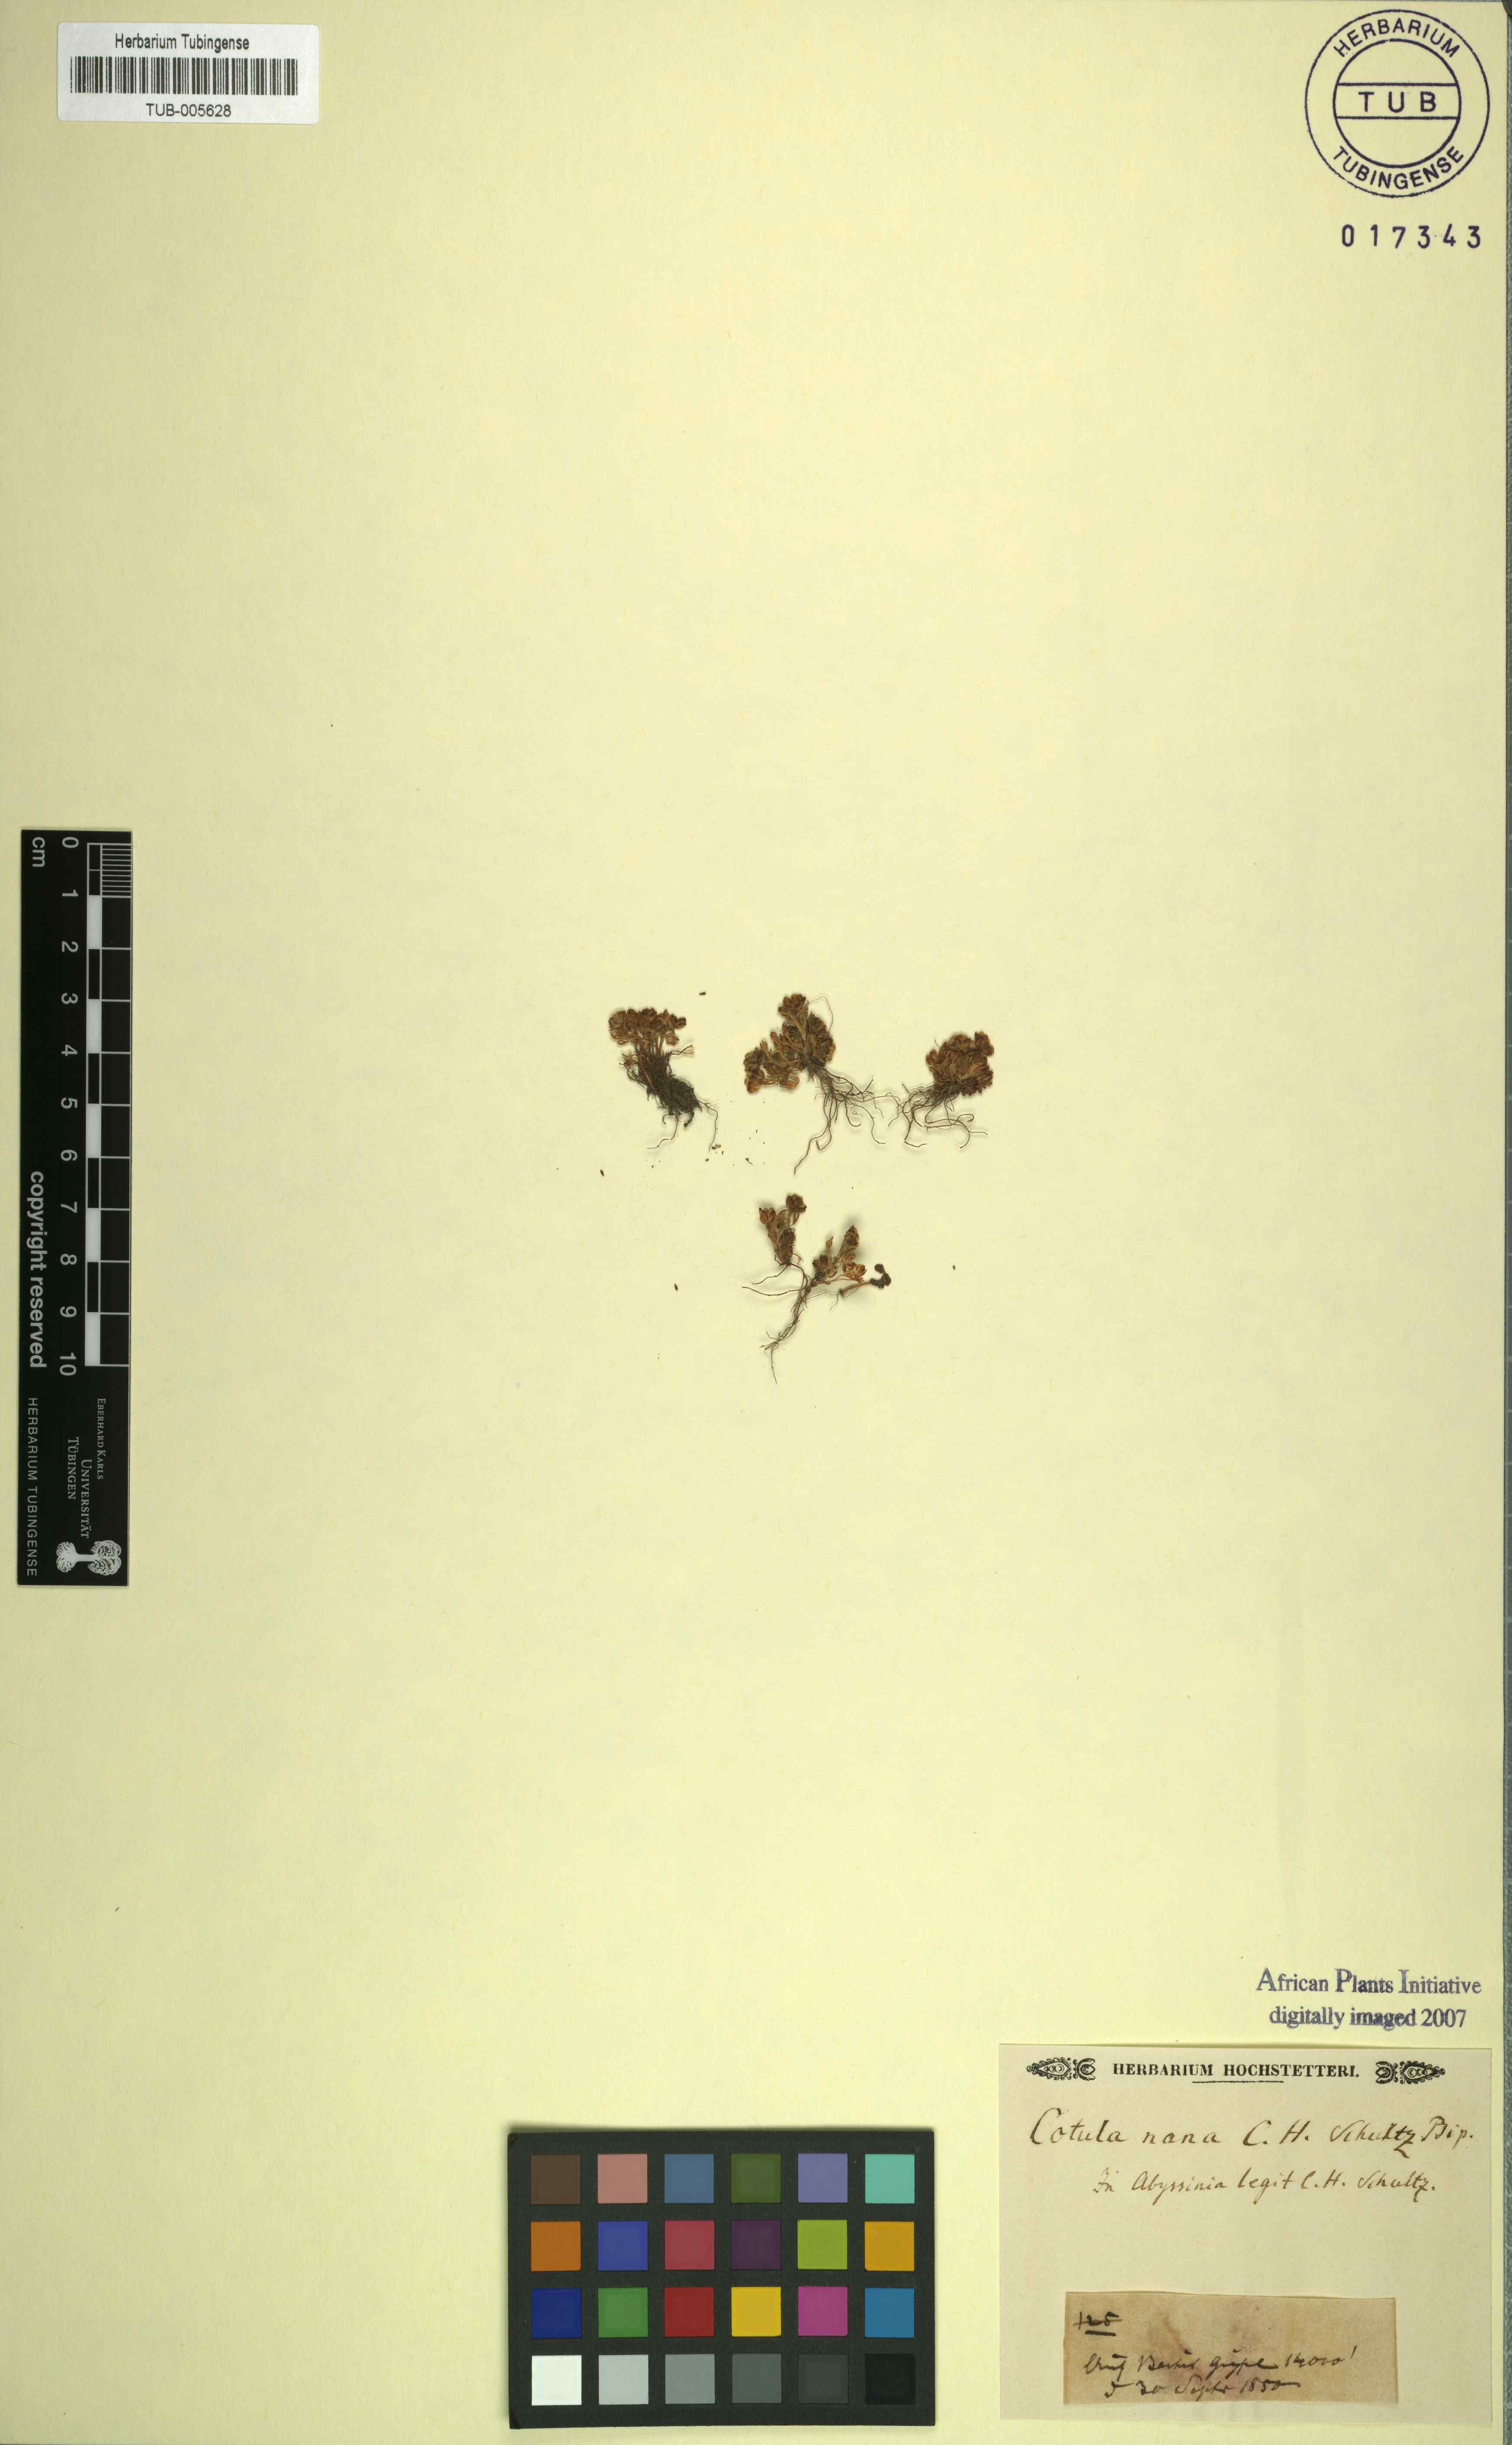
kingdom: Plantae
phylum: Tracheophyta
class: Magnoliopsida
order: Asterales
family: Asteraceae
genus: Leptinella
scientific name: Leptinella nana
